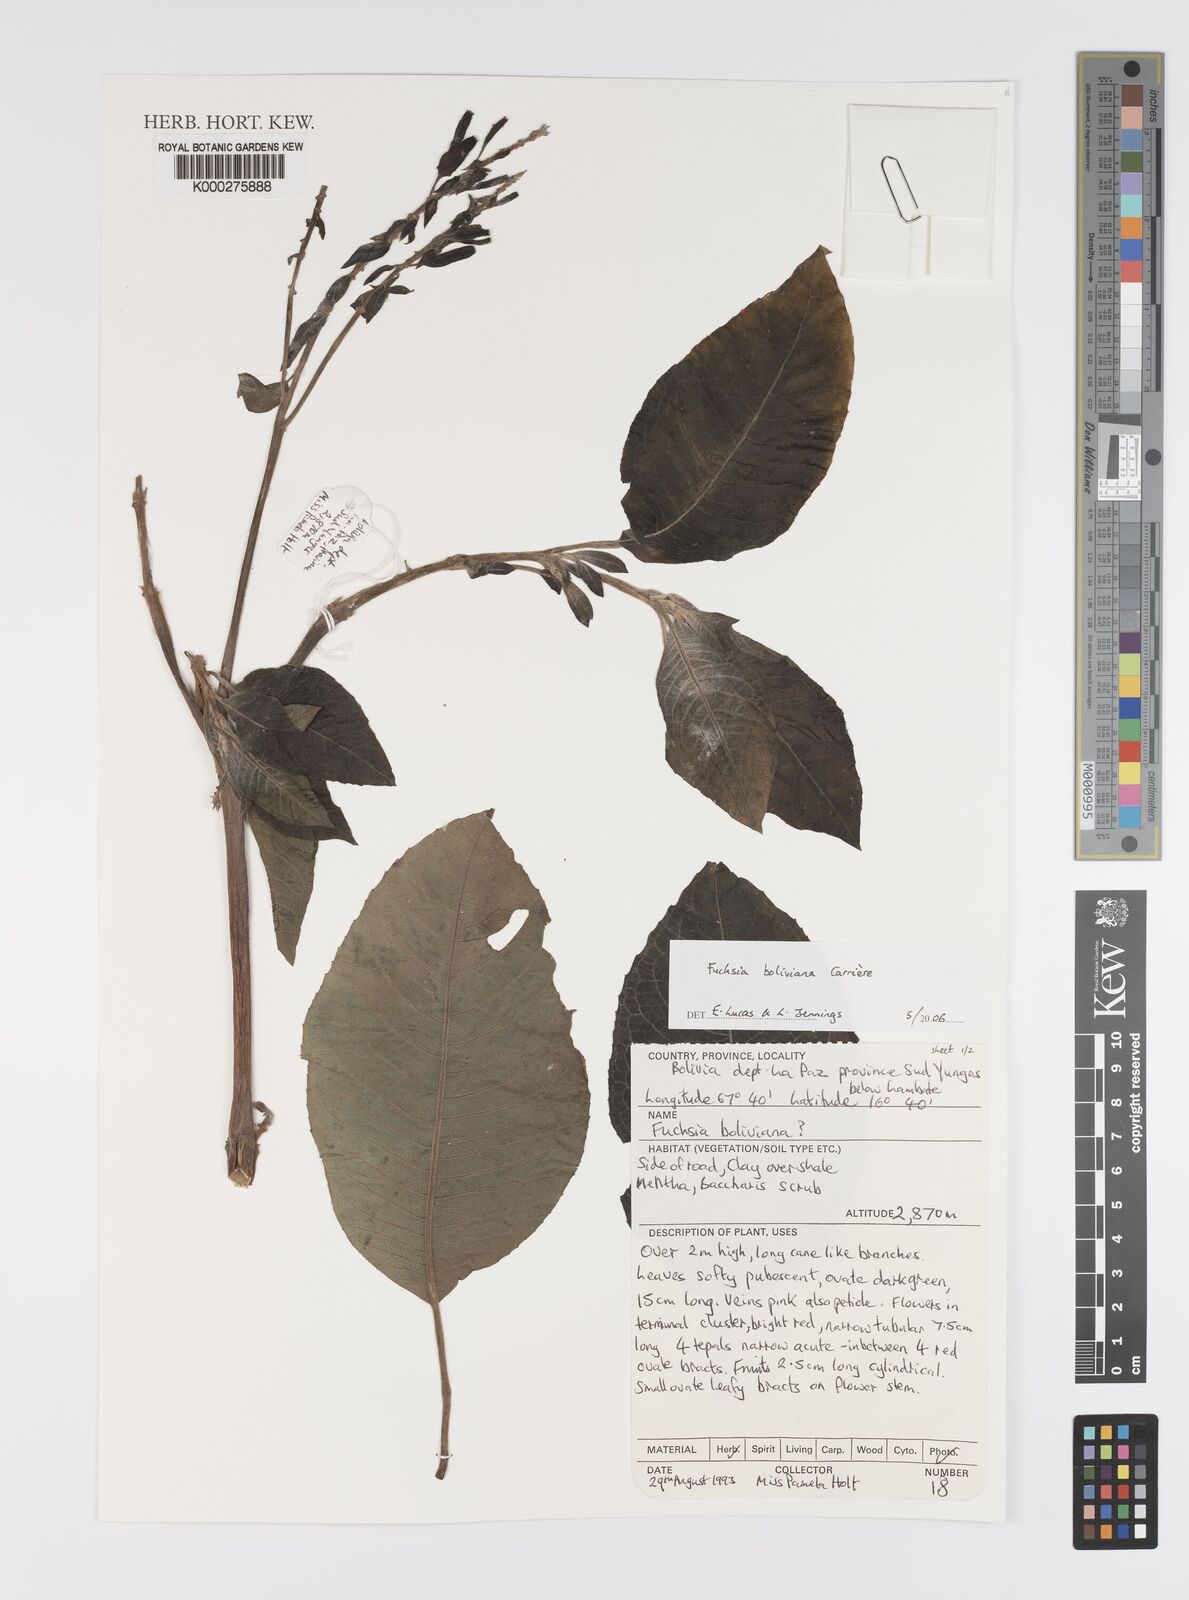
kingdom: Plantae
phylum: Tracheophyta
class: Magnoliopsida
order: Myrtales
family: Onagraceae
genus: Fuchsia
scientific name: Fuchsia boliviana
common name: Bolivian fuchsia
